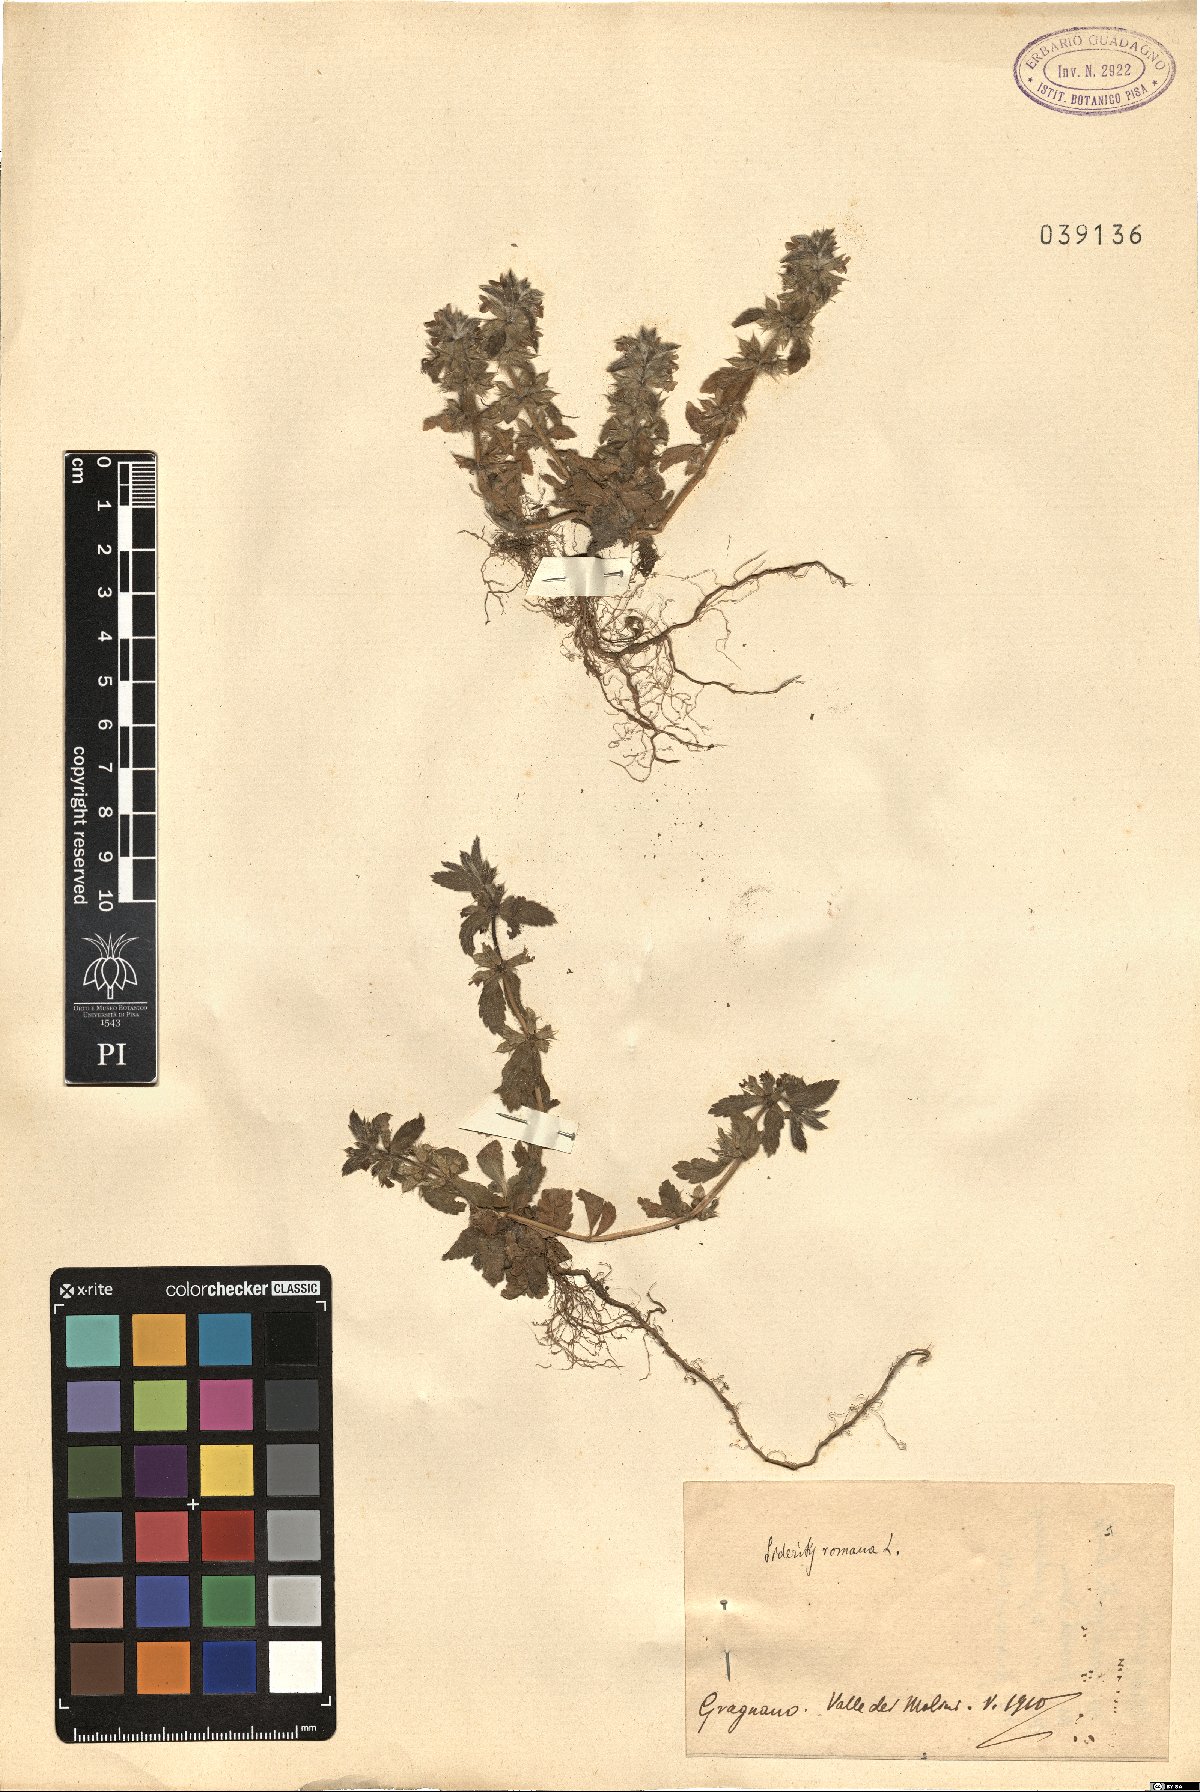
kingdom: Plantae
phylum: Tracheophyta
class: Magnoliopsida
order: Lamiales
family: Lamiaceae
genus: Sideritis
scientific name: Sideritis romana
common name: Simplebeak ironwort
